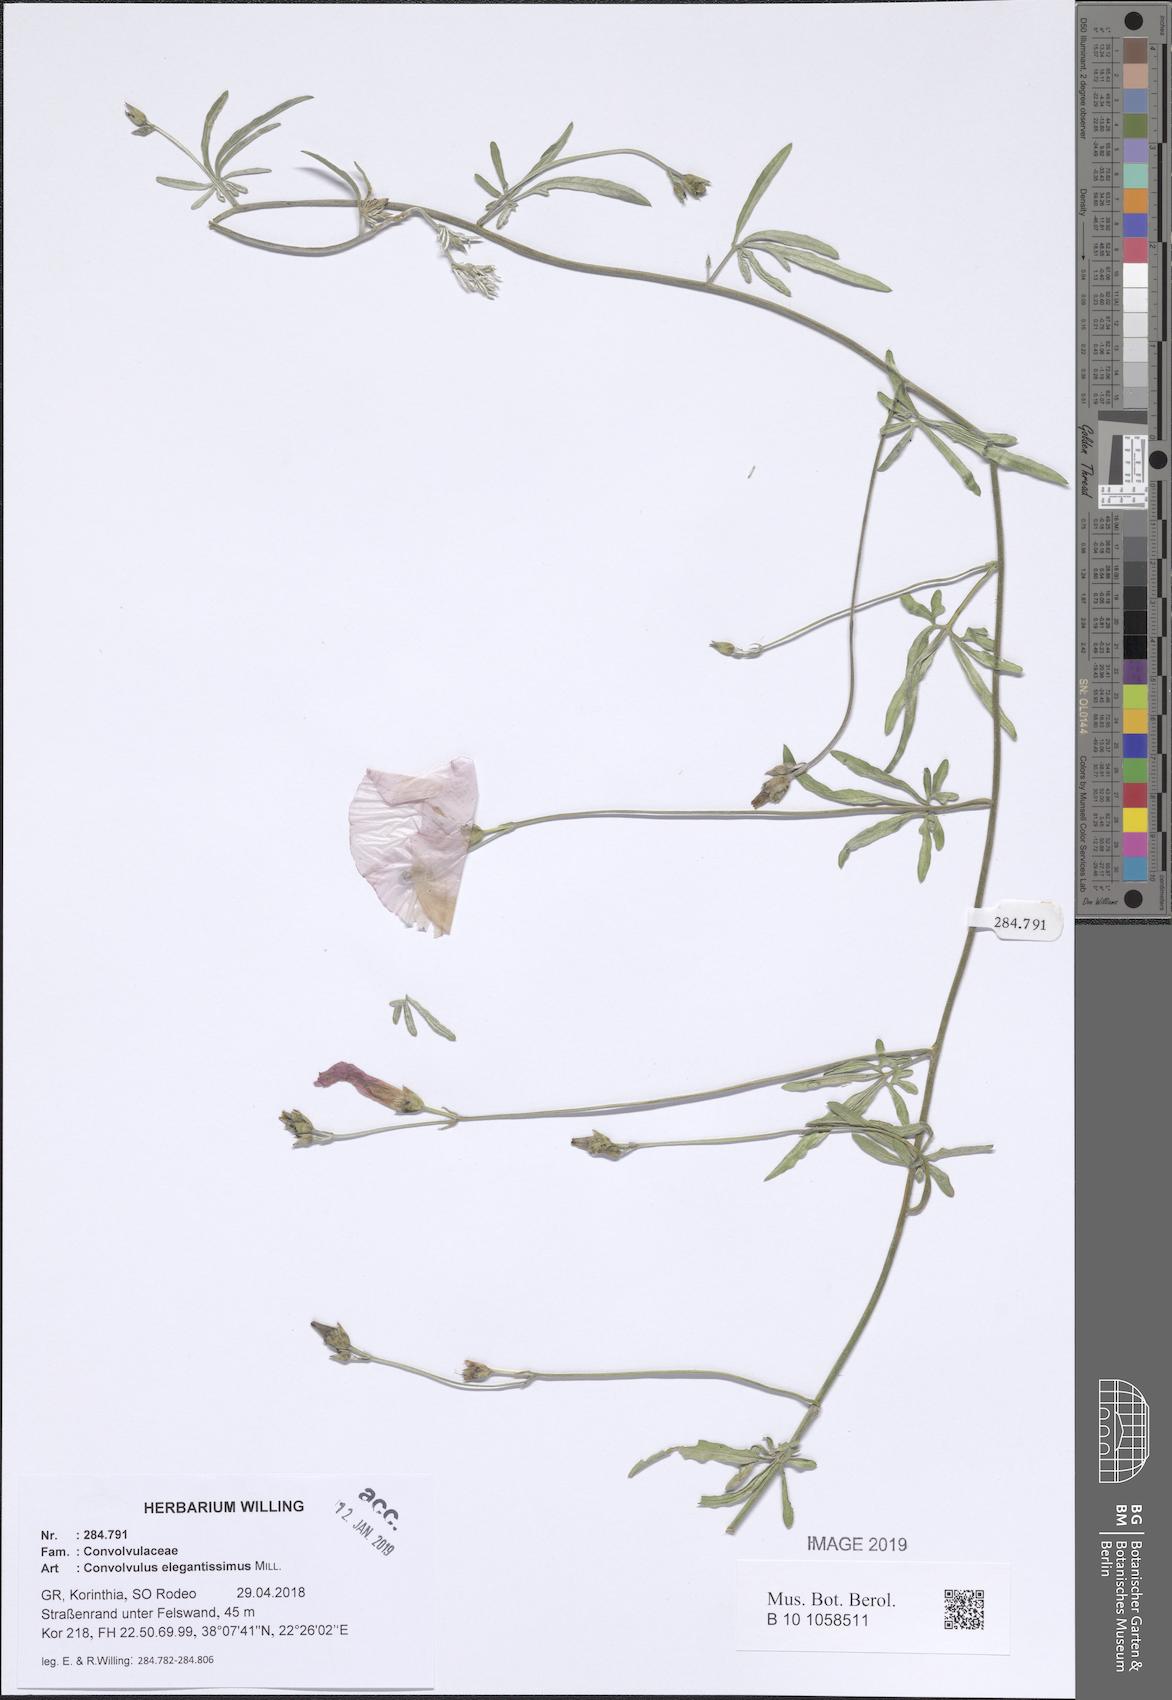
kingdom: Plantae
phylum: Tracheophyta
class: Magnoliopsida
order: Solanales
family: Convolvulaceae
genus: Convolvulus
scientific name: Convolvulus elegantissimus
